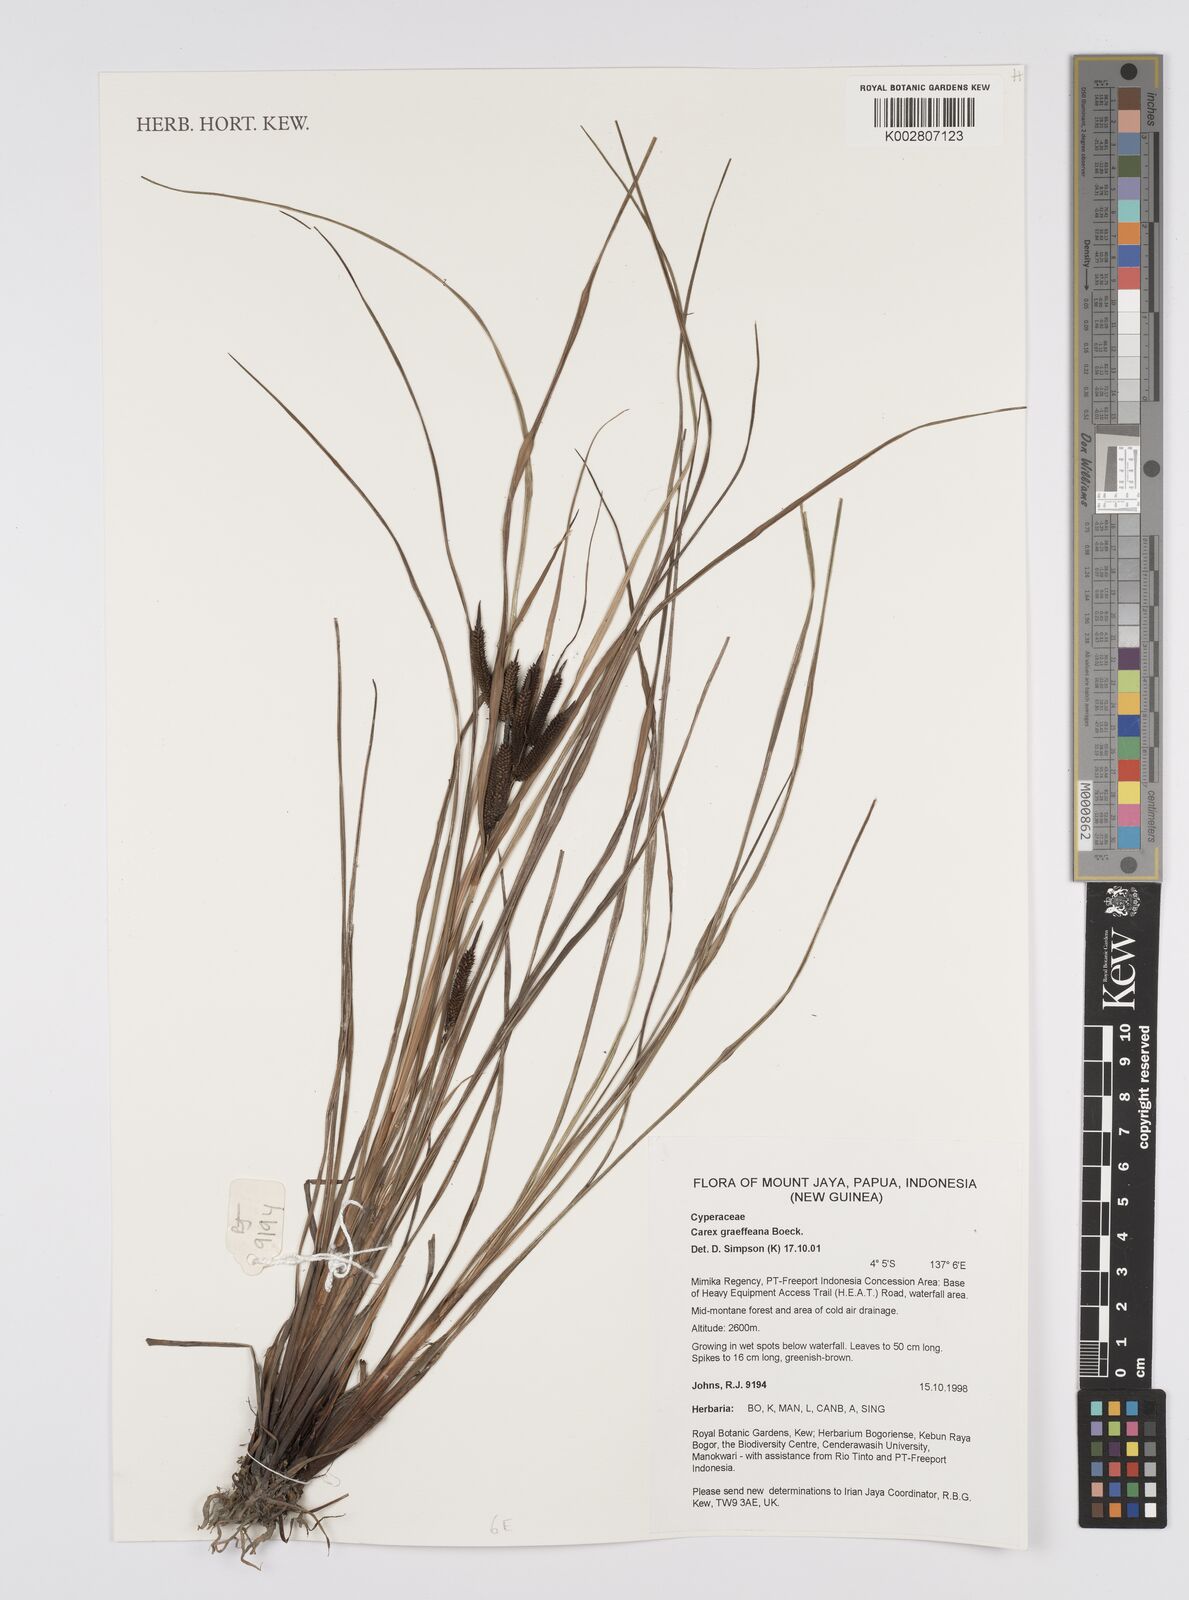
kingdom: Plantae
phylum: Tracheophyta
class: Liliopsida
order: Poales
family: Cyperaceae
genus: Carex
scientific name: Carex graeffeana
